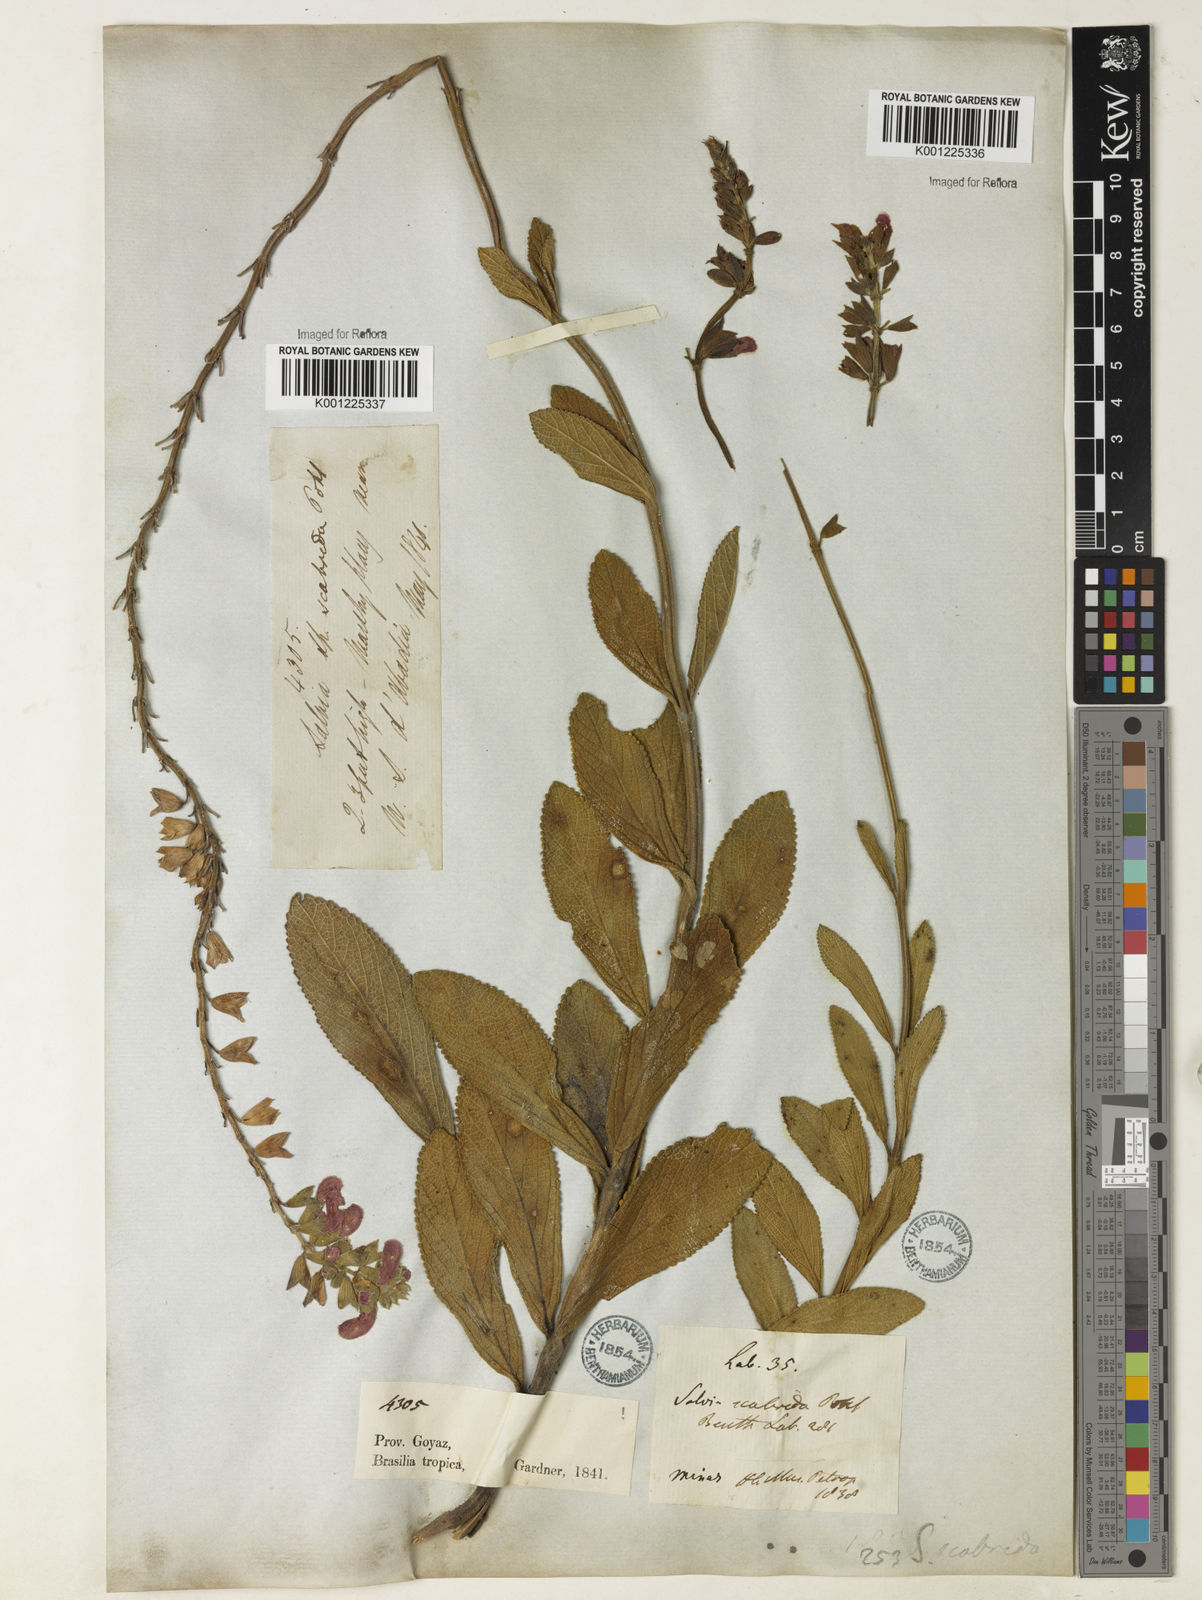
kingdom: Plantae
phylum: Tracheophyta
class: Magnoliopsida
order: Lamiales
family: Lamiaceae
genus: Salvia
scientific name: Salvia scabrida
